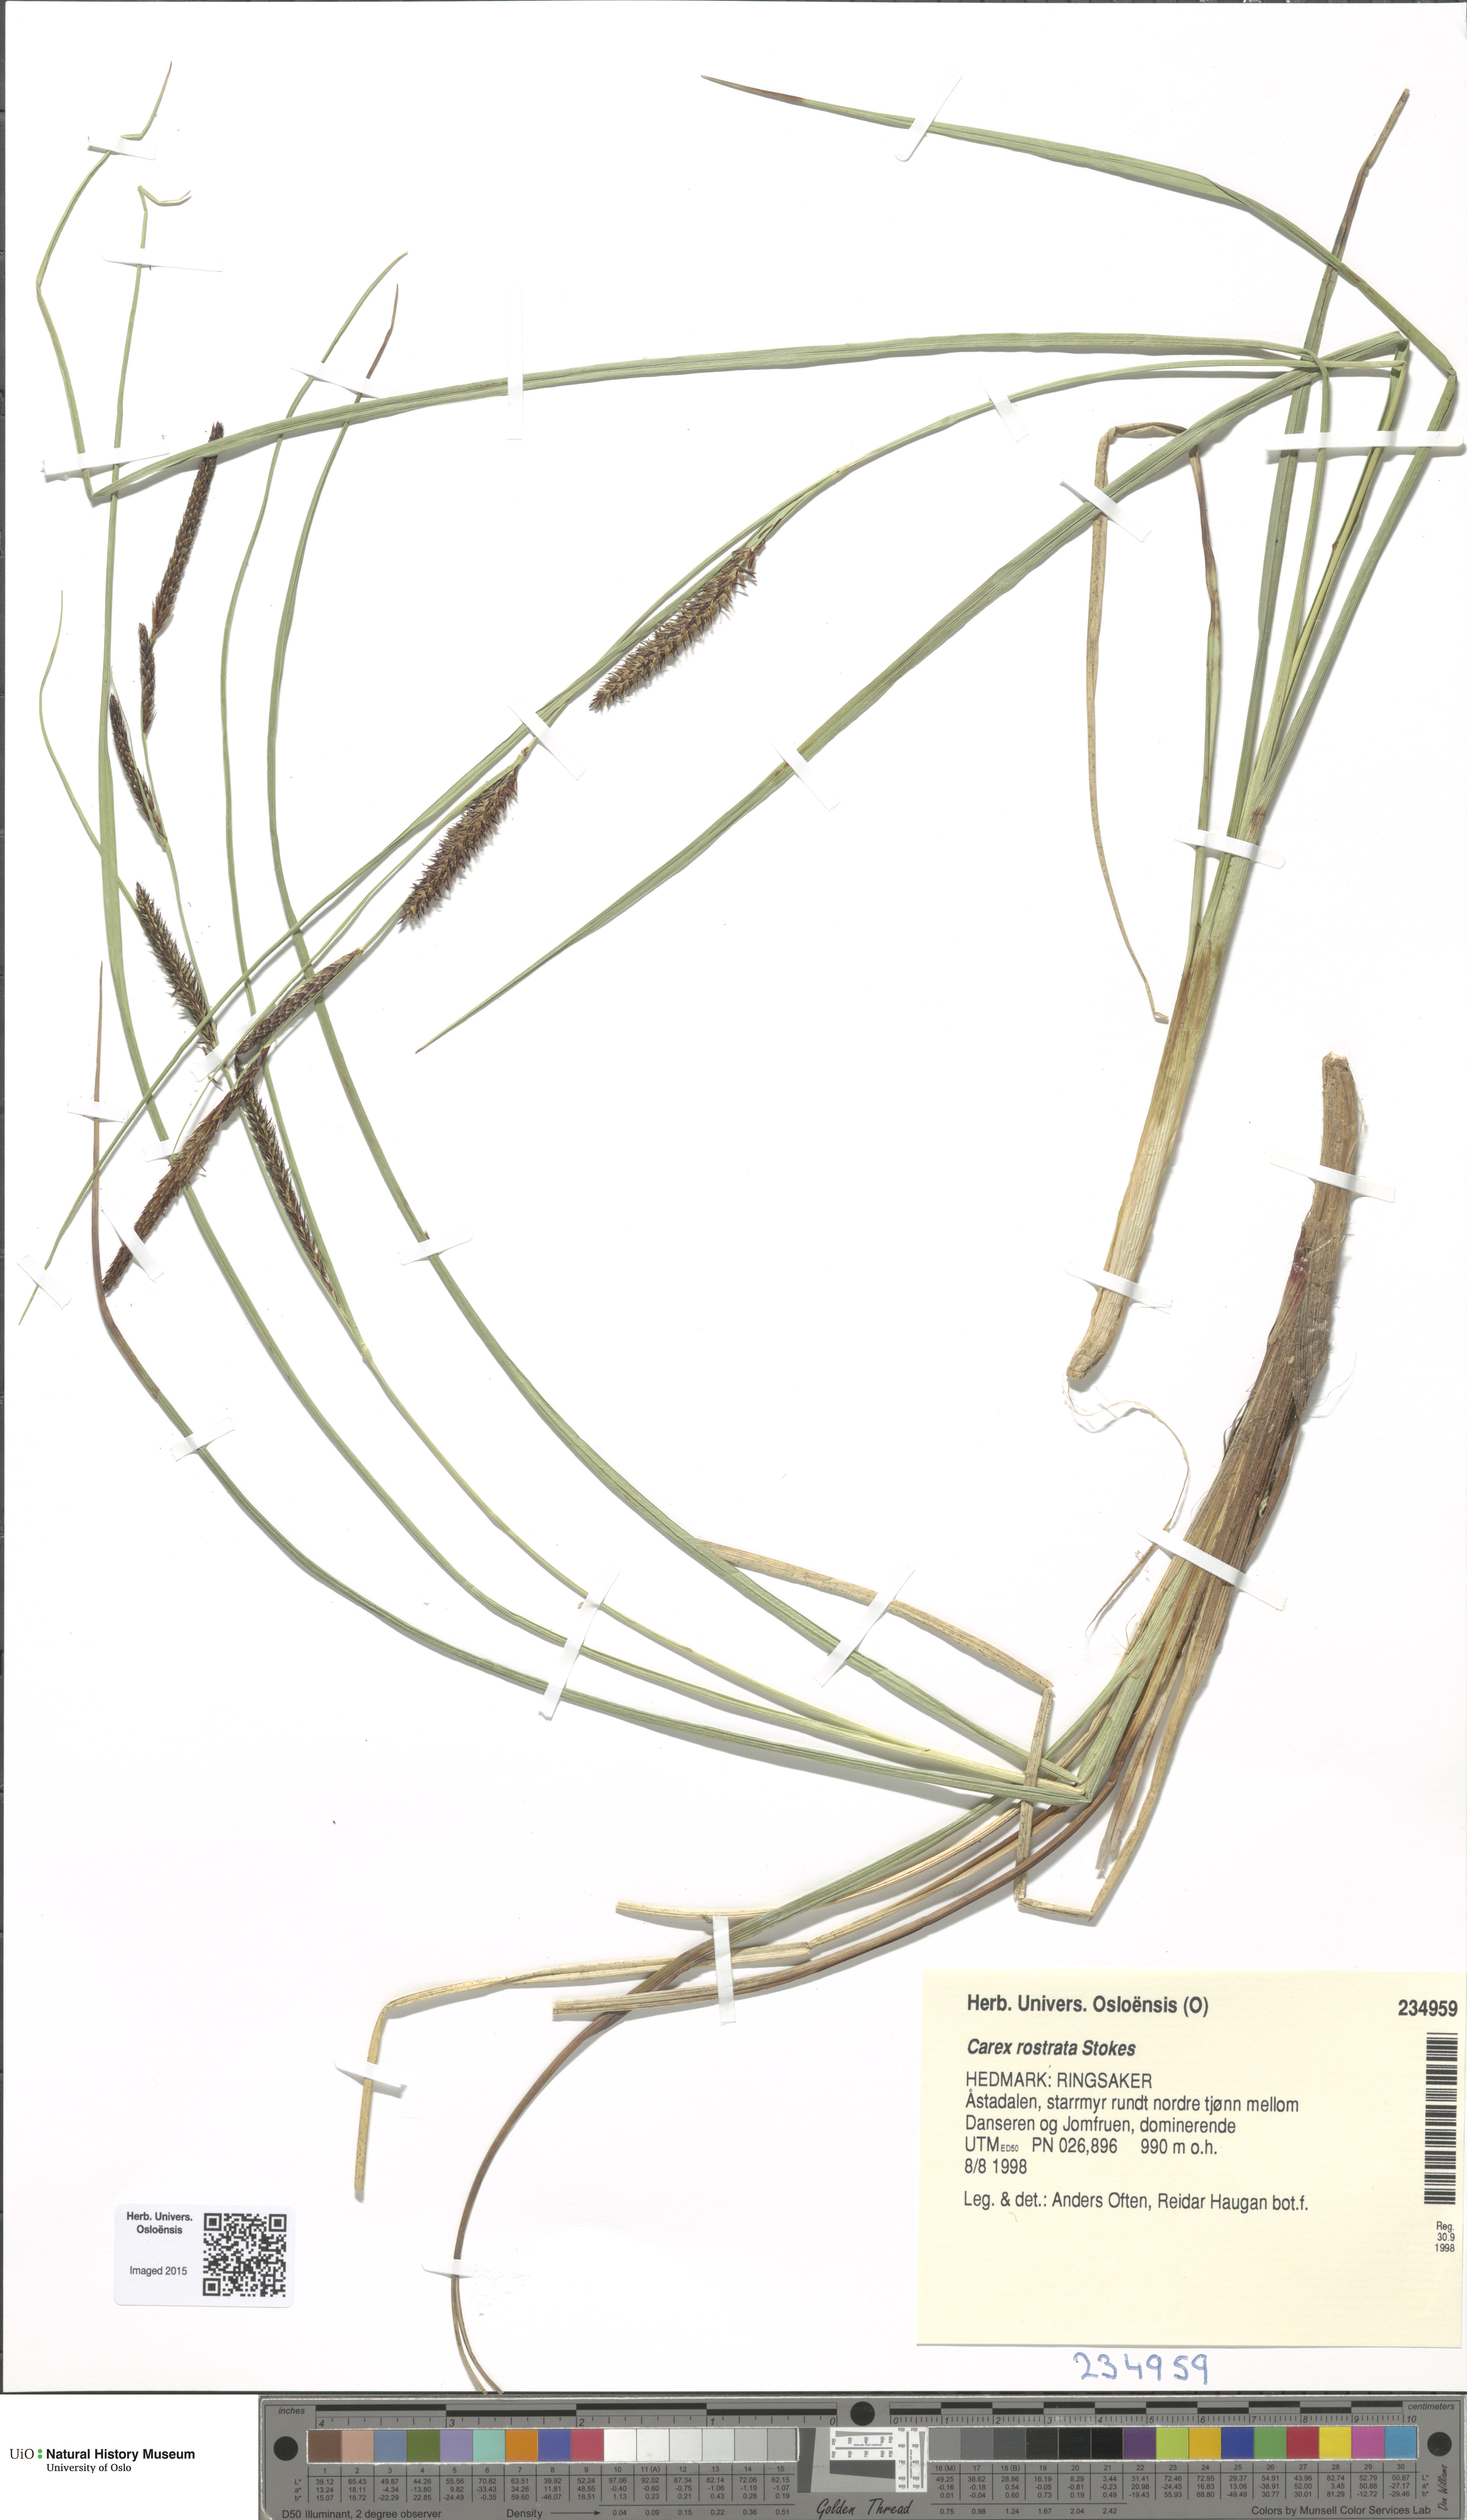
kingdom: Plantae
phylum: Tracheophyta
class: Liliopsida
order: Poales
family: Cyperaceae
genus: Carex
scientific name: Carex rostrata
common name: Bottle sedge
